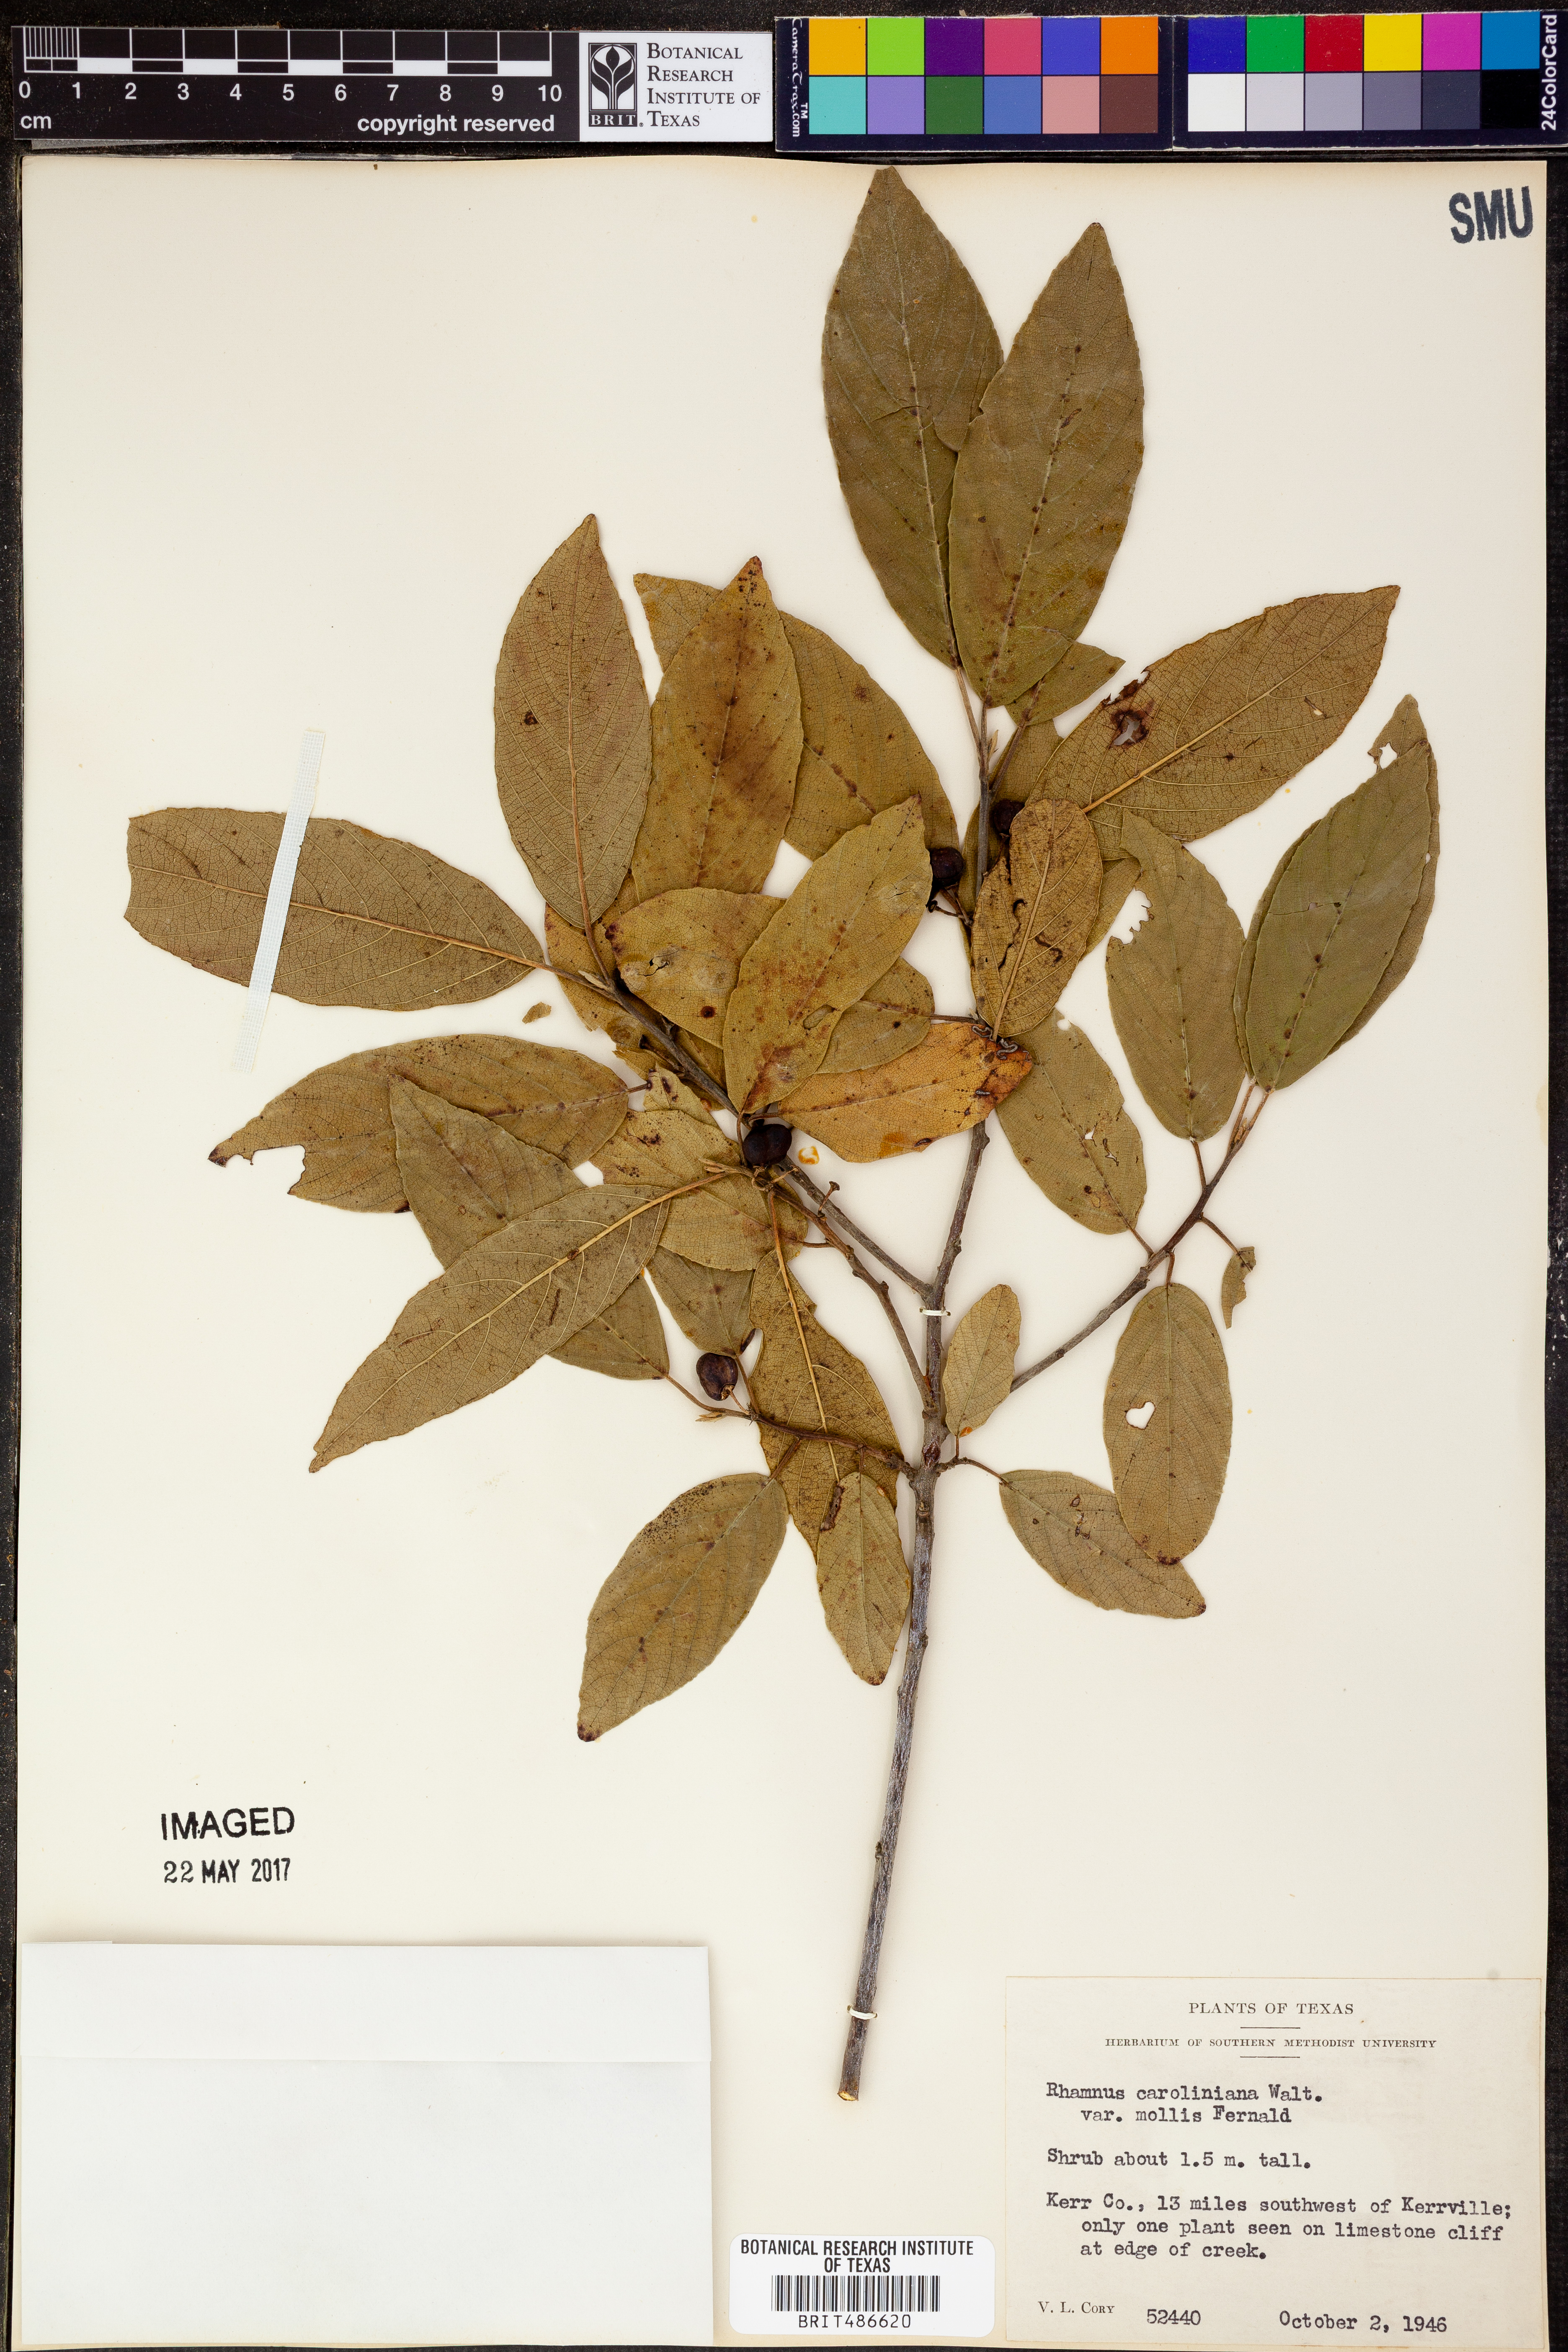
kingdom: Plantae
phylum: Tracheophyta
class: Magnoliopsida
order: Rosales
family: Rhamnaceae
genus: Frangula
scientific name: Frangula caroliniana
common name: Carolina buckthorn
